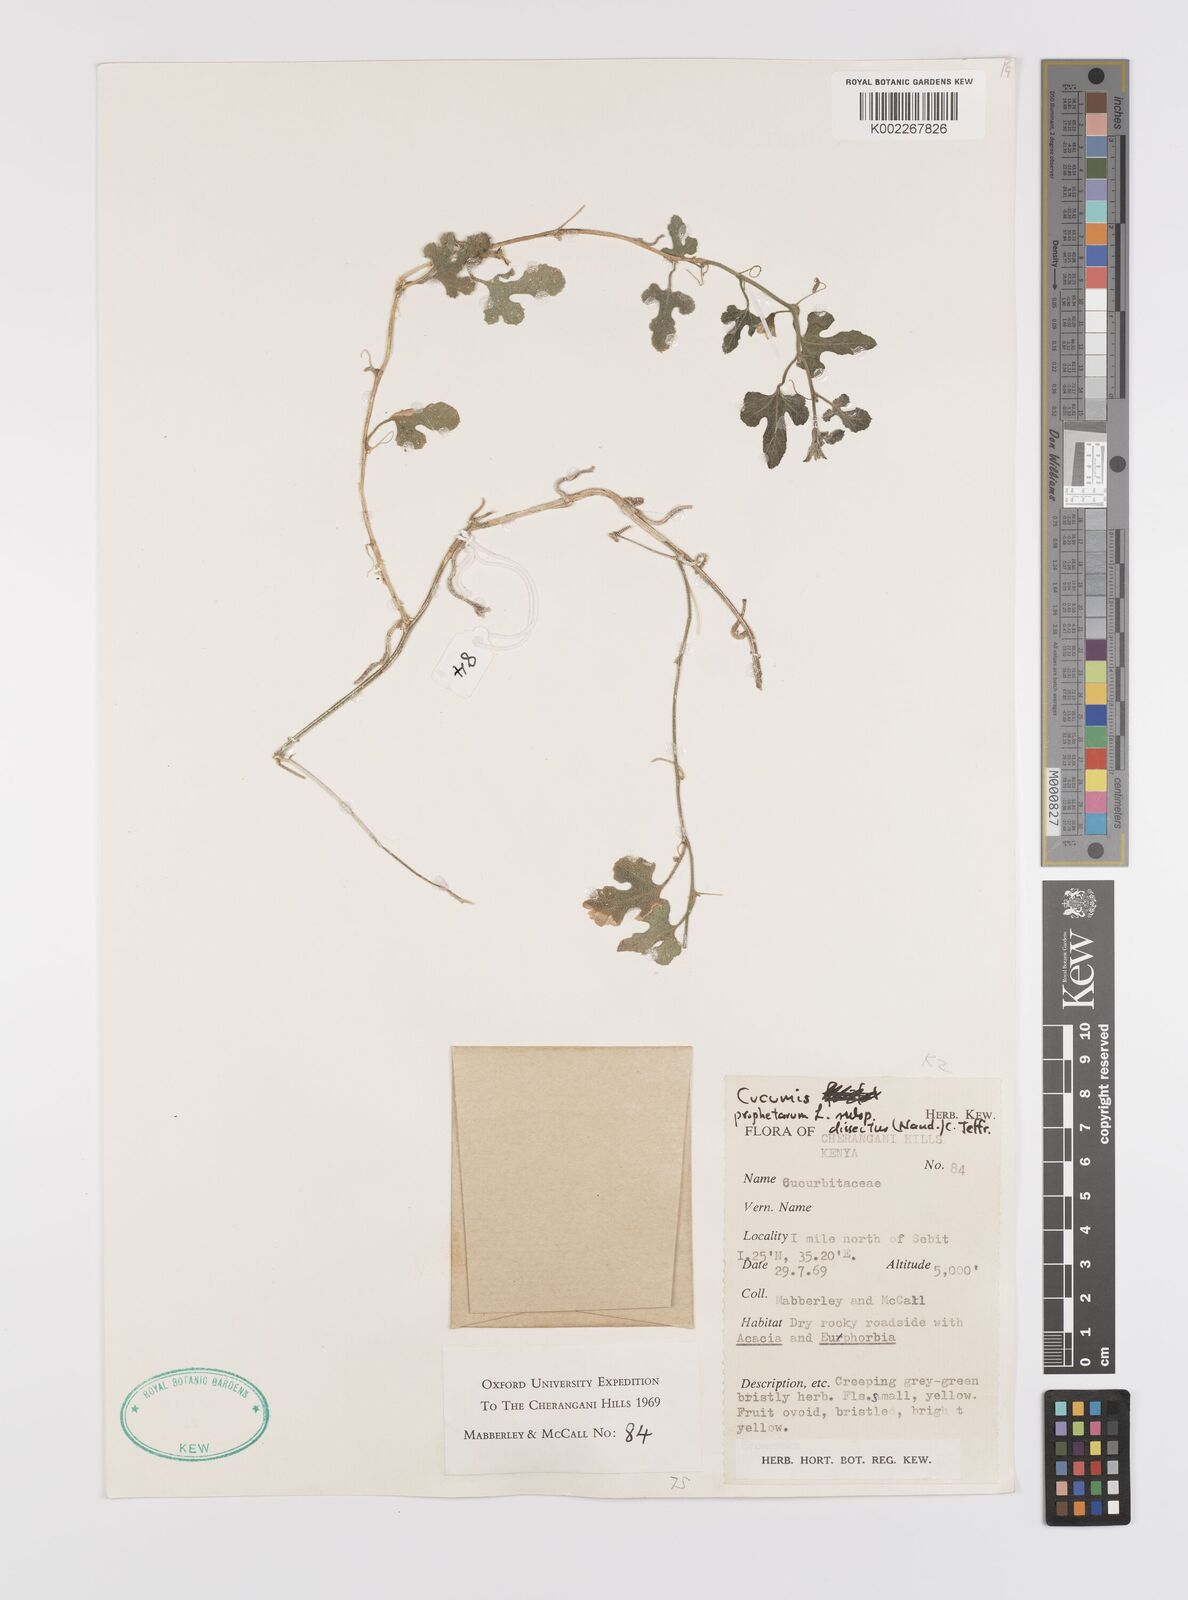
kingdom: Plantae
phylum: Tracheophyta
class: Magnoliopsida
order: Cucurbitales
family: Cucurbitaceae
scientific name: Cucurbitaceae
